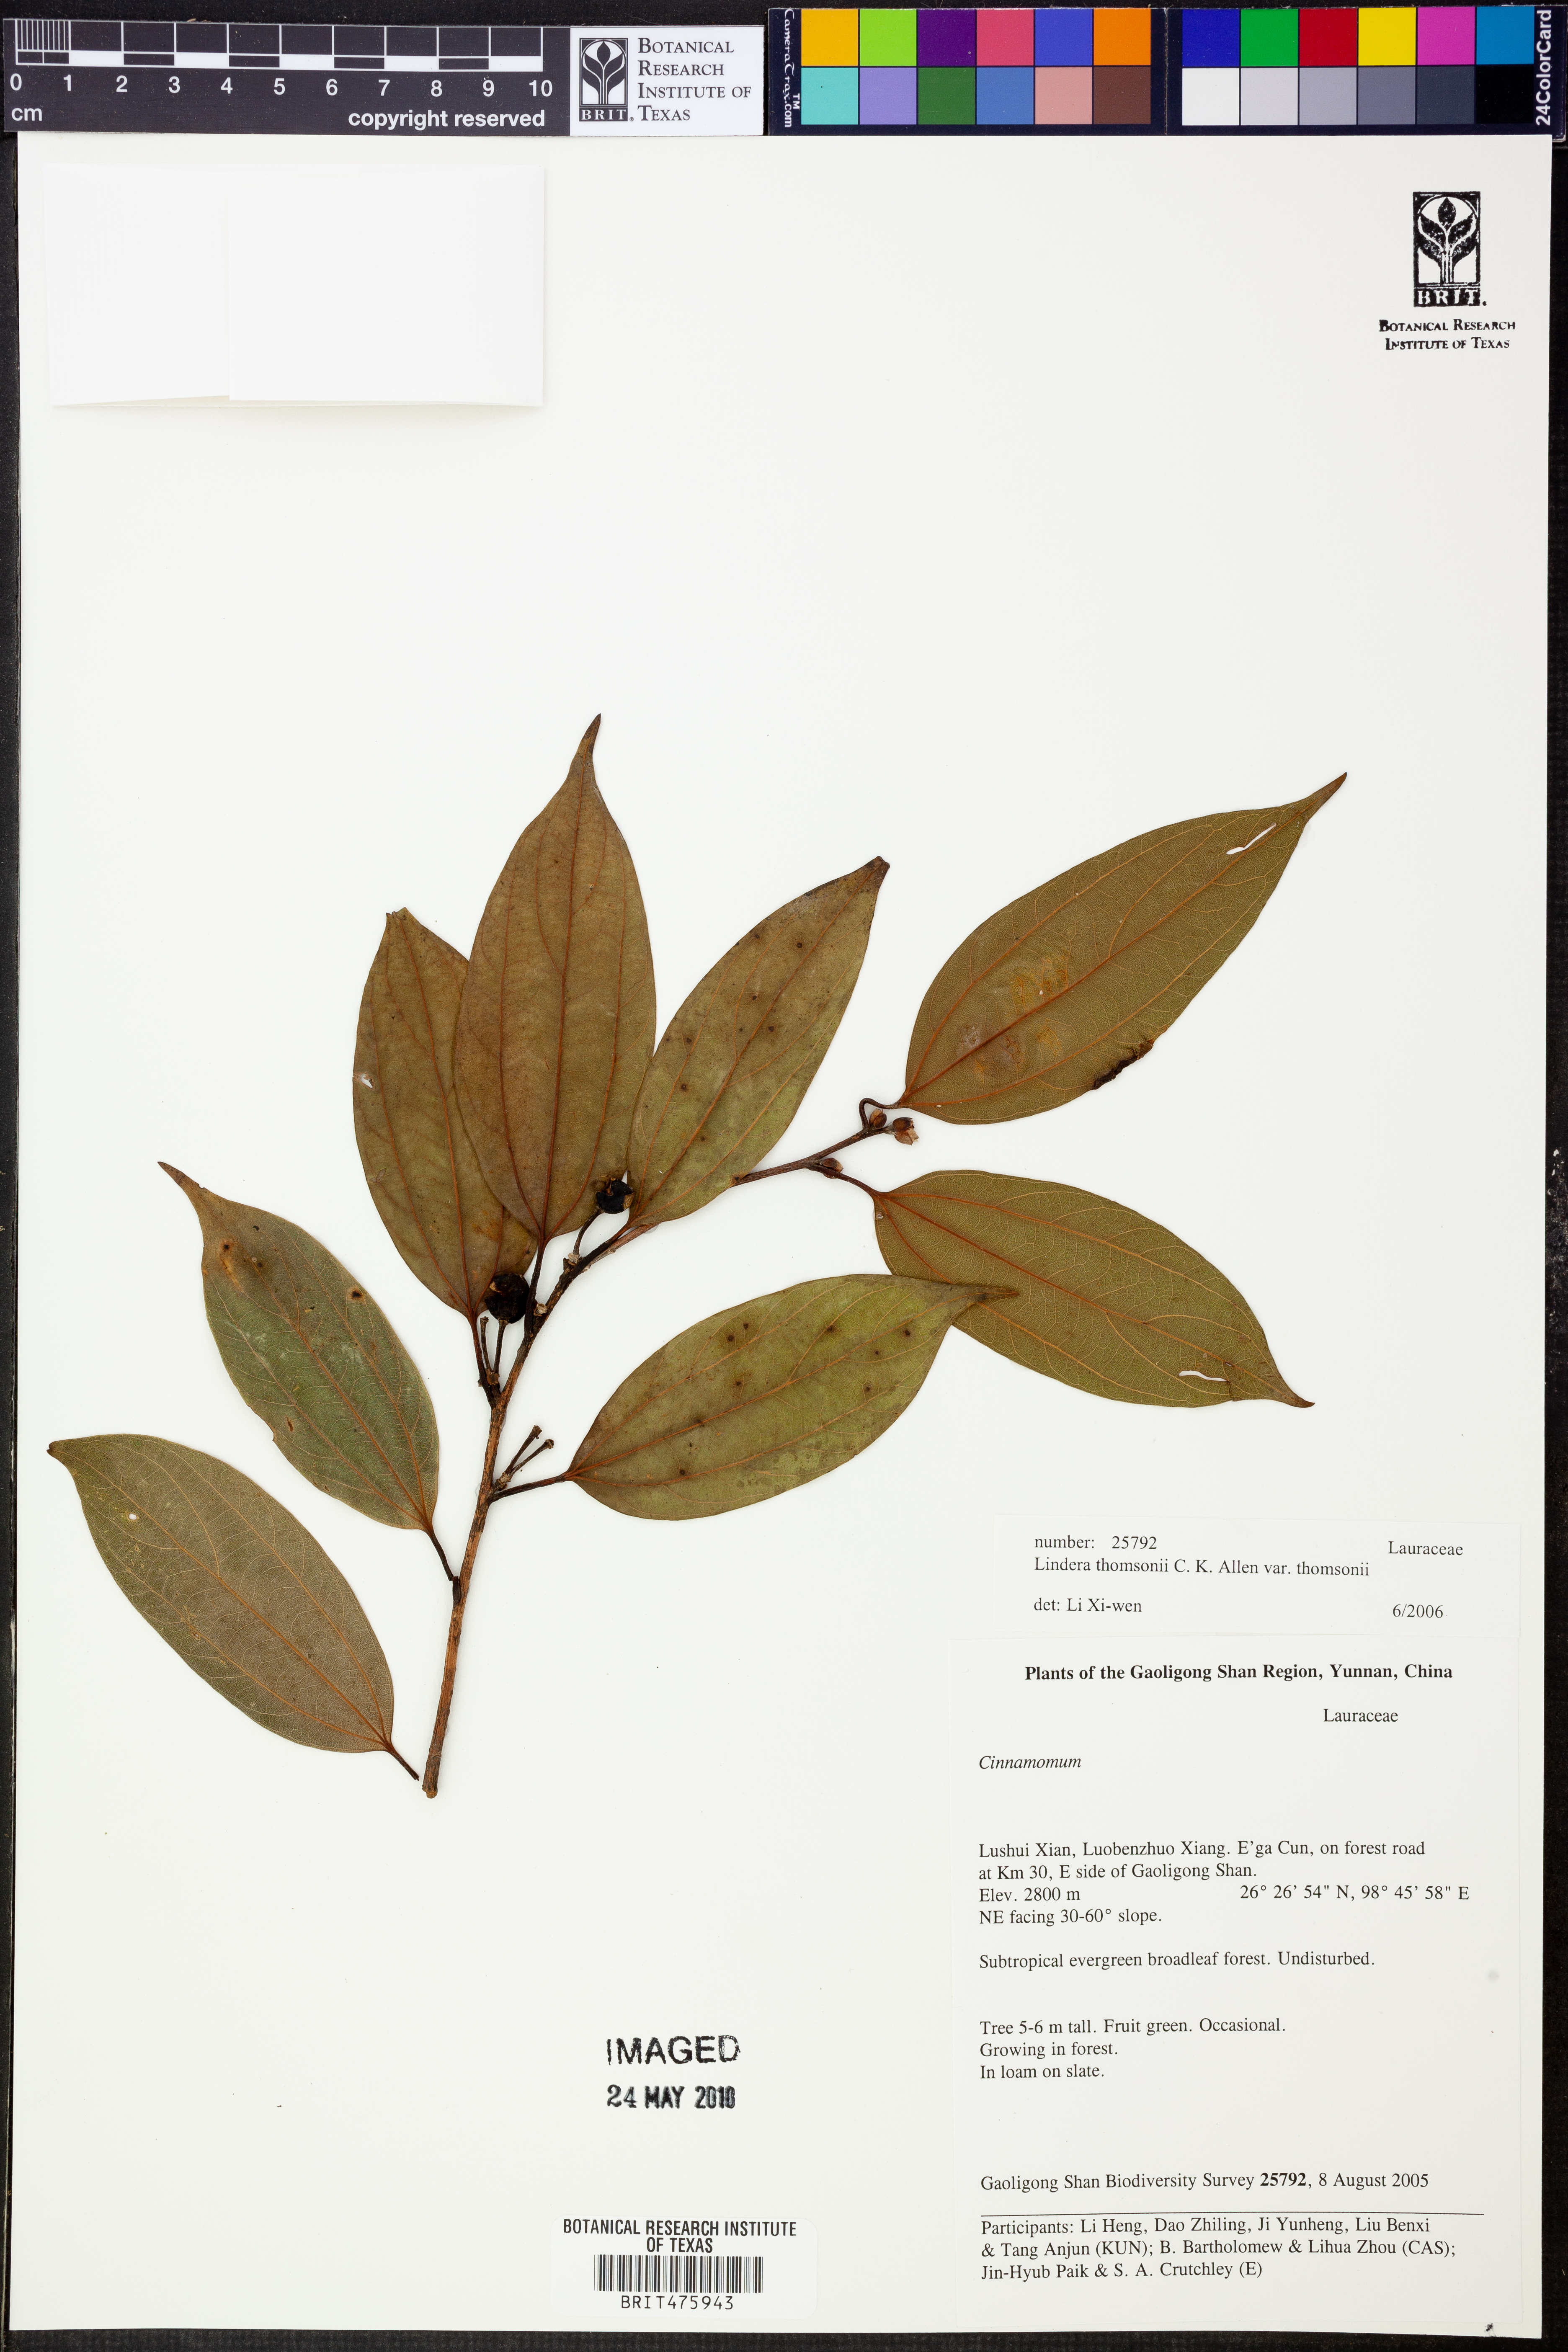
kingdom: Plantae
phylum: Tracheophyta
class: Magnoliopsida
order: Laurales
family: Lauraceae
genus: Lindera
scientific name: Lindera thomsonii
